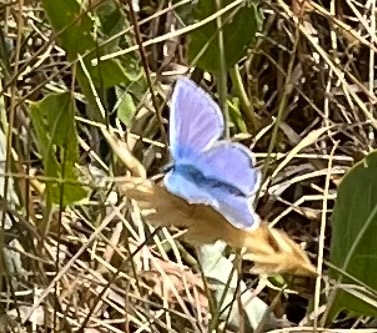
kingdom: Animalia
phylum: Arthropoda
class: Insecta
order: Lepidoptera
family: Lycaenidae
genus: Polyommatus
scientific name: Polyommatus icarus
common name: Almindelig blåfugl
